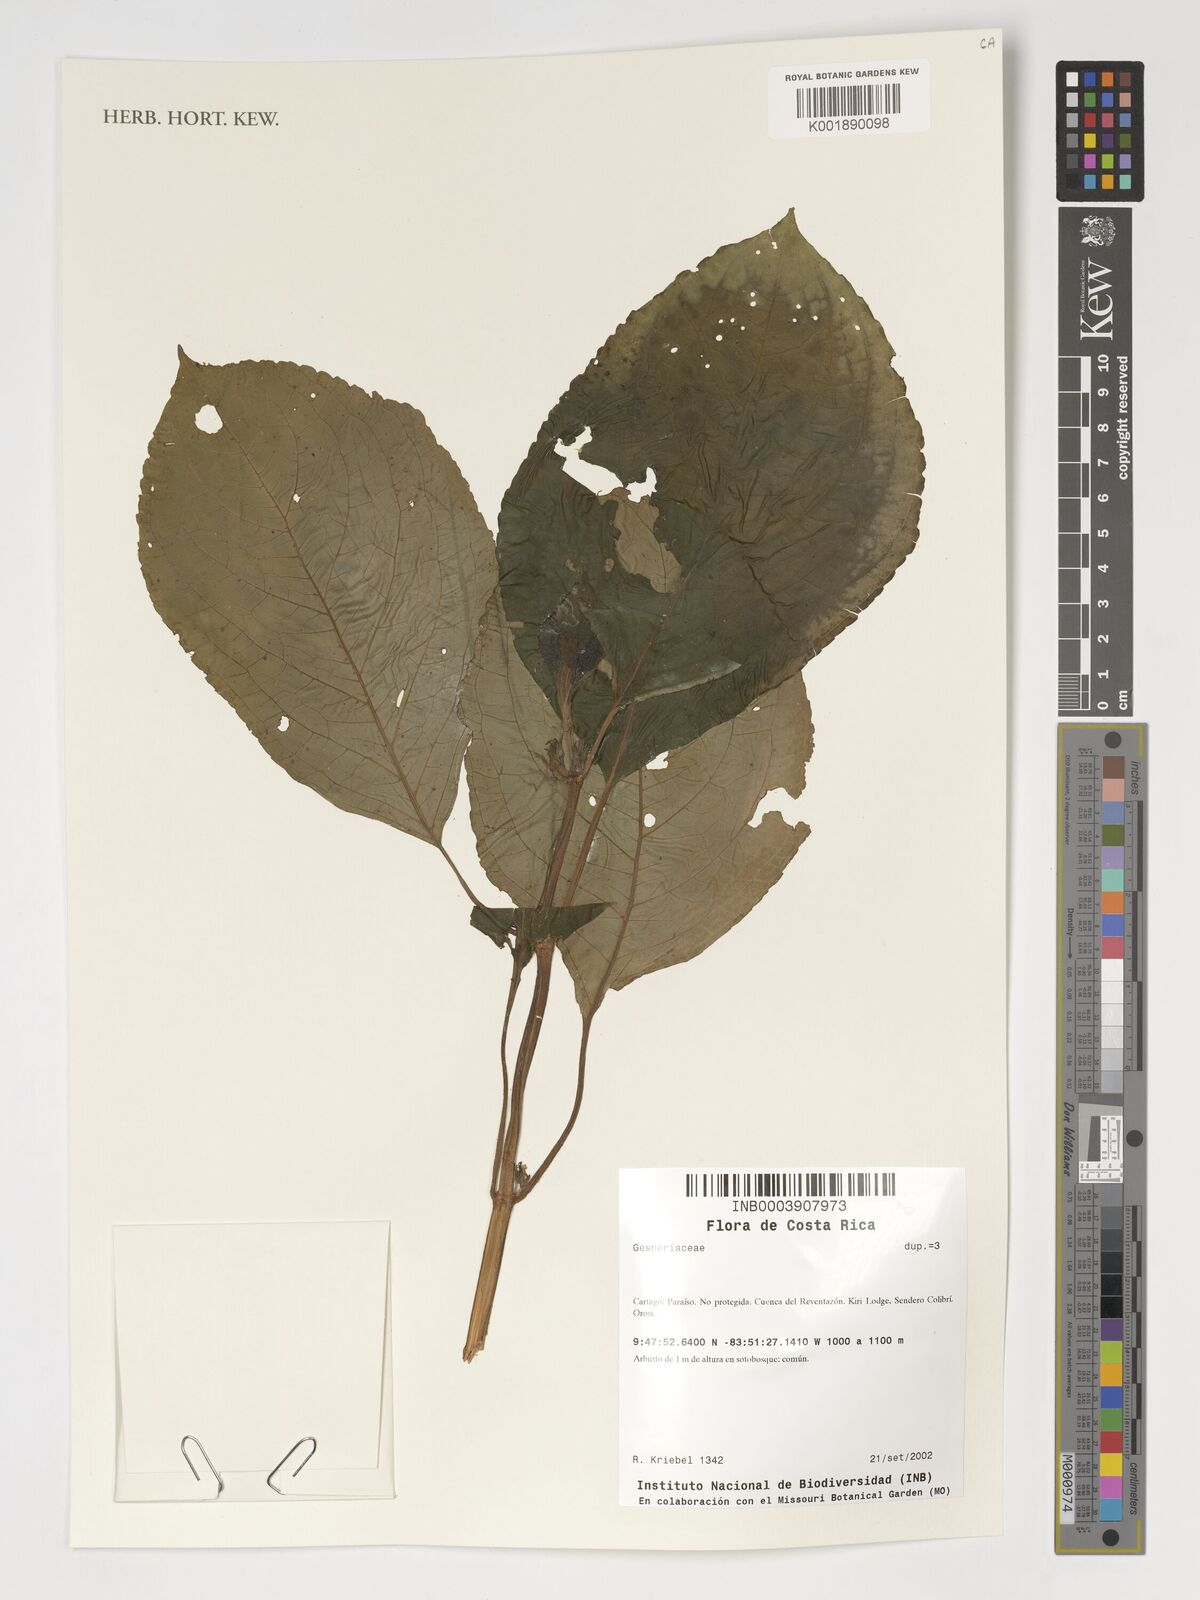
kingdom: Plantae
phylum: Tracheophyta
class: Magnoliopsida
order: Lamiales
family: Gesneriaceae
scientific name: Gesneriaceae
